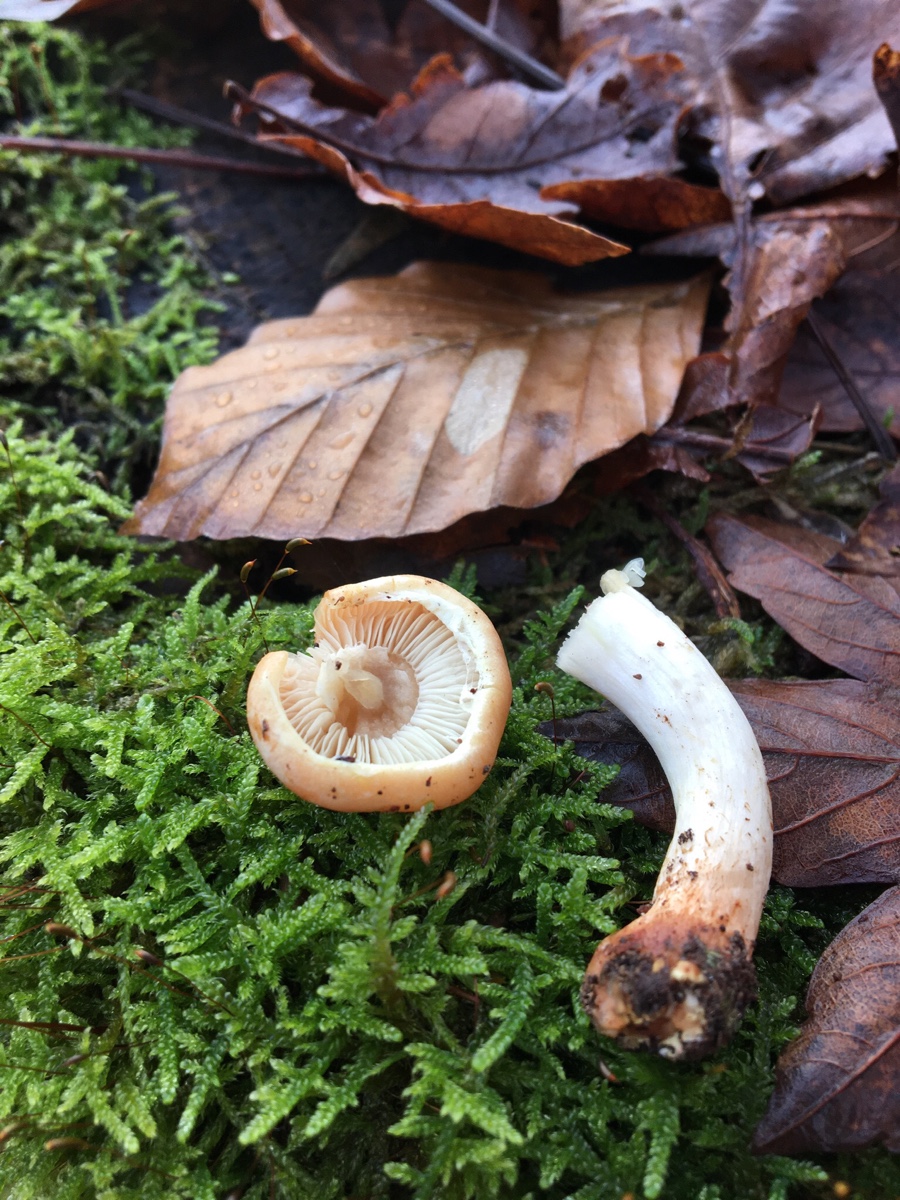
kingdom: Fungi
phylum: Basidiomycota
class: Agaricomycetes
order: Agaricales
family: Strophariaceae
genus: Hypholoma
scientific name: Hypholoma lateritium
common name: teglrød svovlhat
